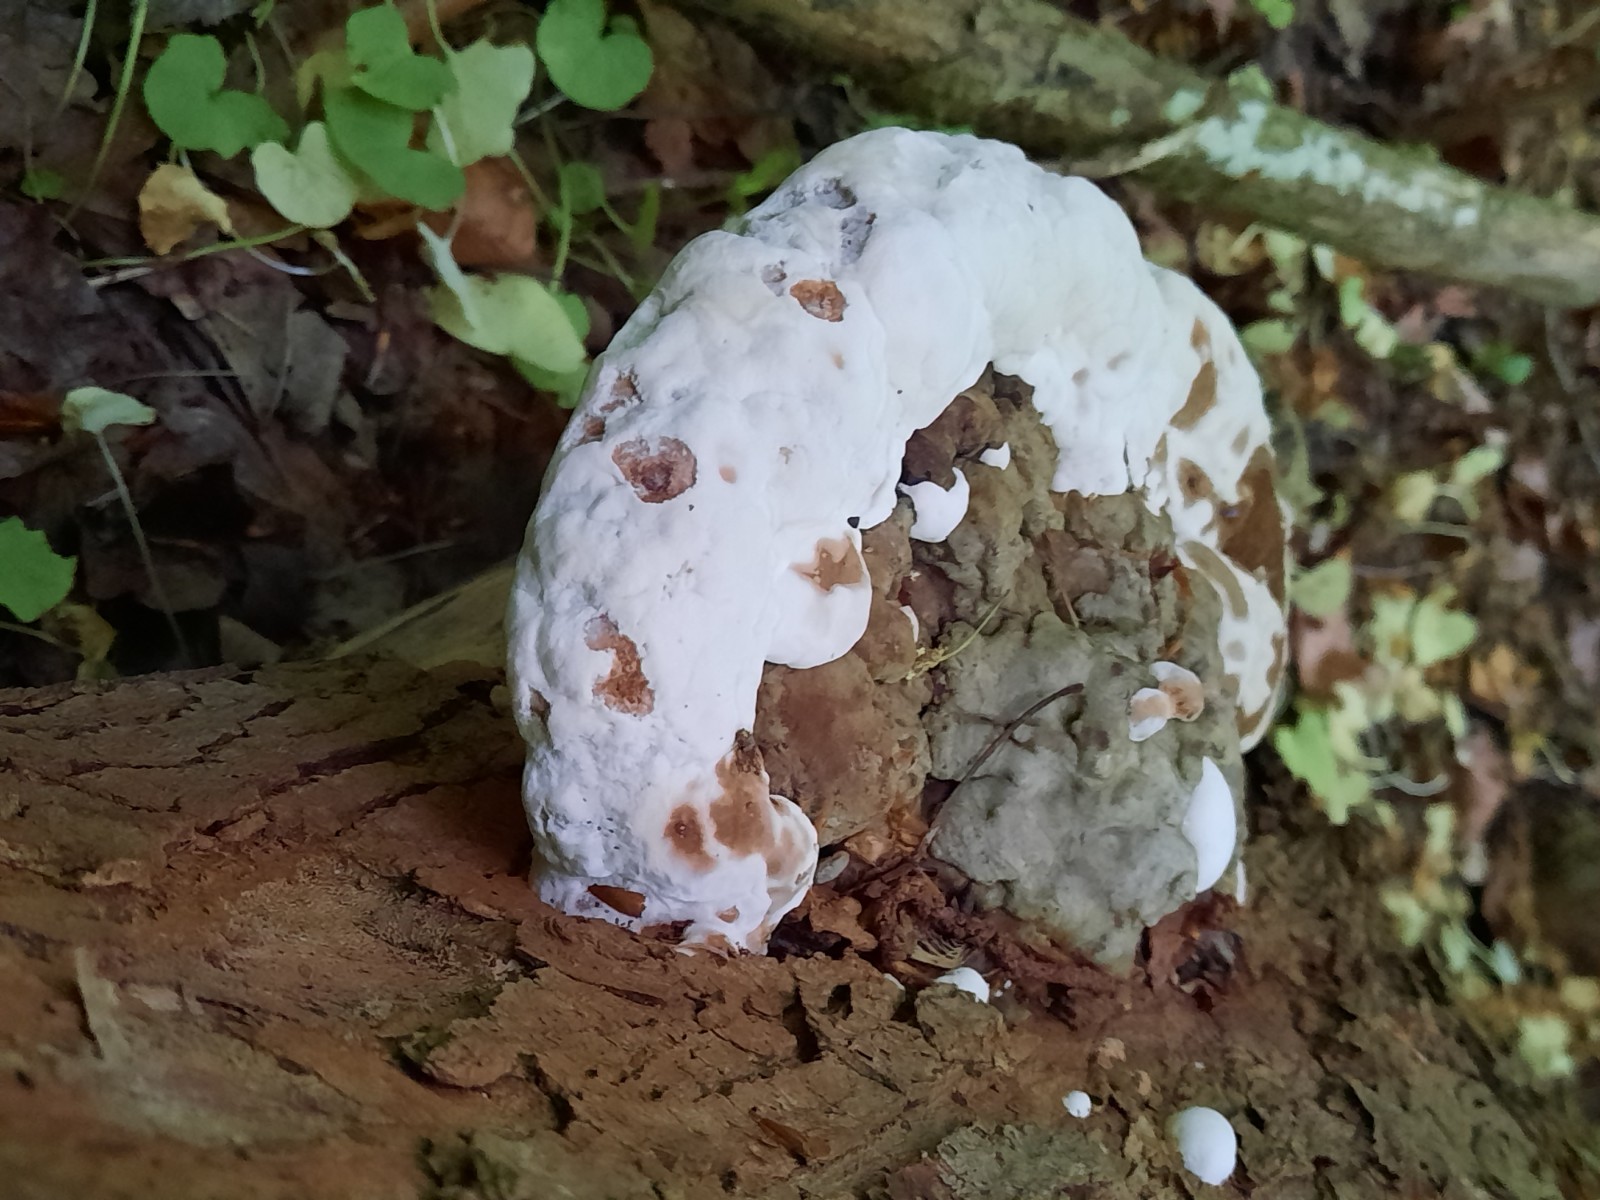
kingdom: Fungi
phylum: Basidiomycota
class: Agaricomycetes
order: Polyporales
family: Polyporaceae
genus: Ganoderma
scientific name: Ganoderma applanatum
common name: flad lakporesvamp
